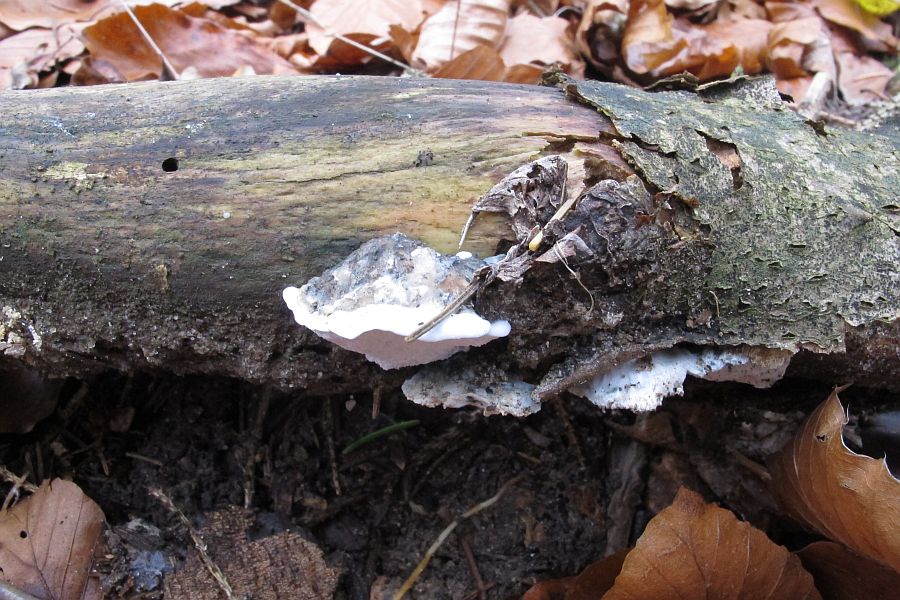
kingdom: Fungi
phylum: Basidiomycota
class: Agaricomycetes
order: Polyporales
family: Polyporaceae
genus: Cyanosporus
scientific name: Cyanosporus caesius
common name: blålig kødporesvamp
